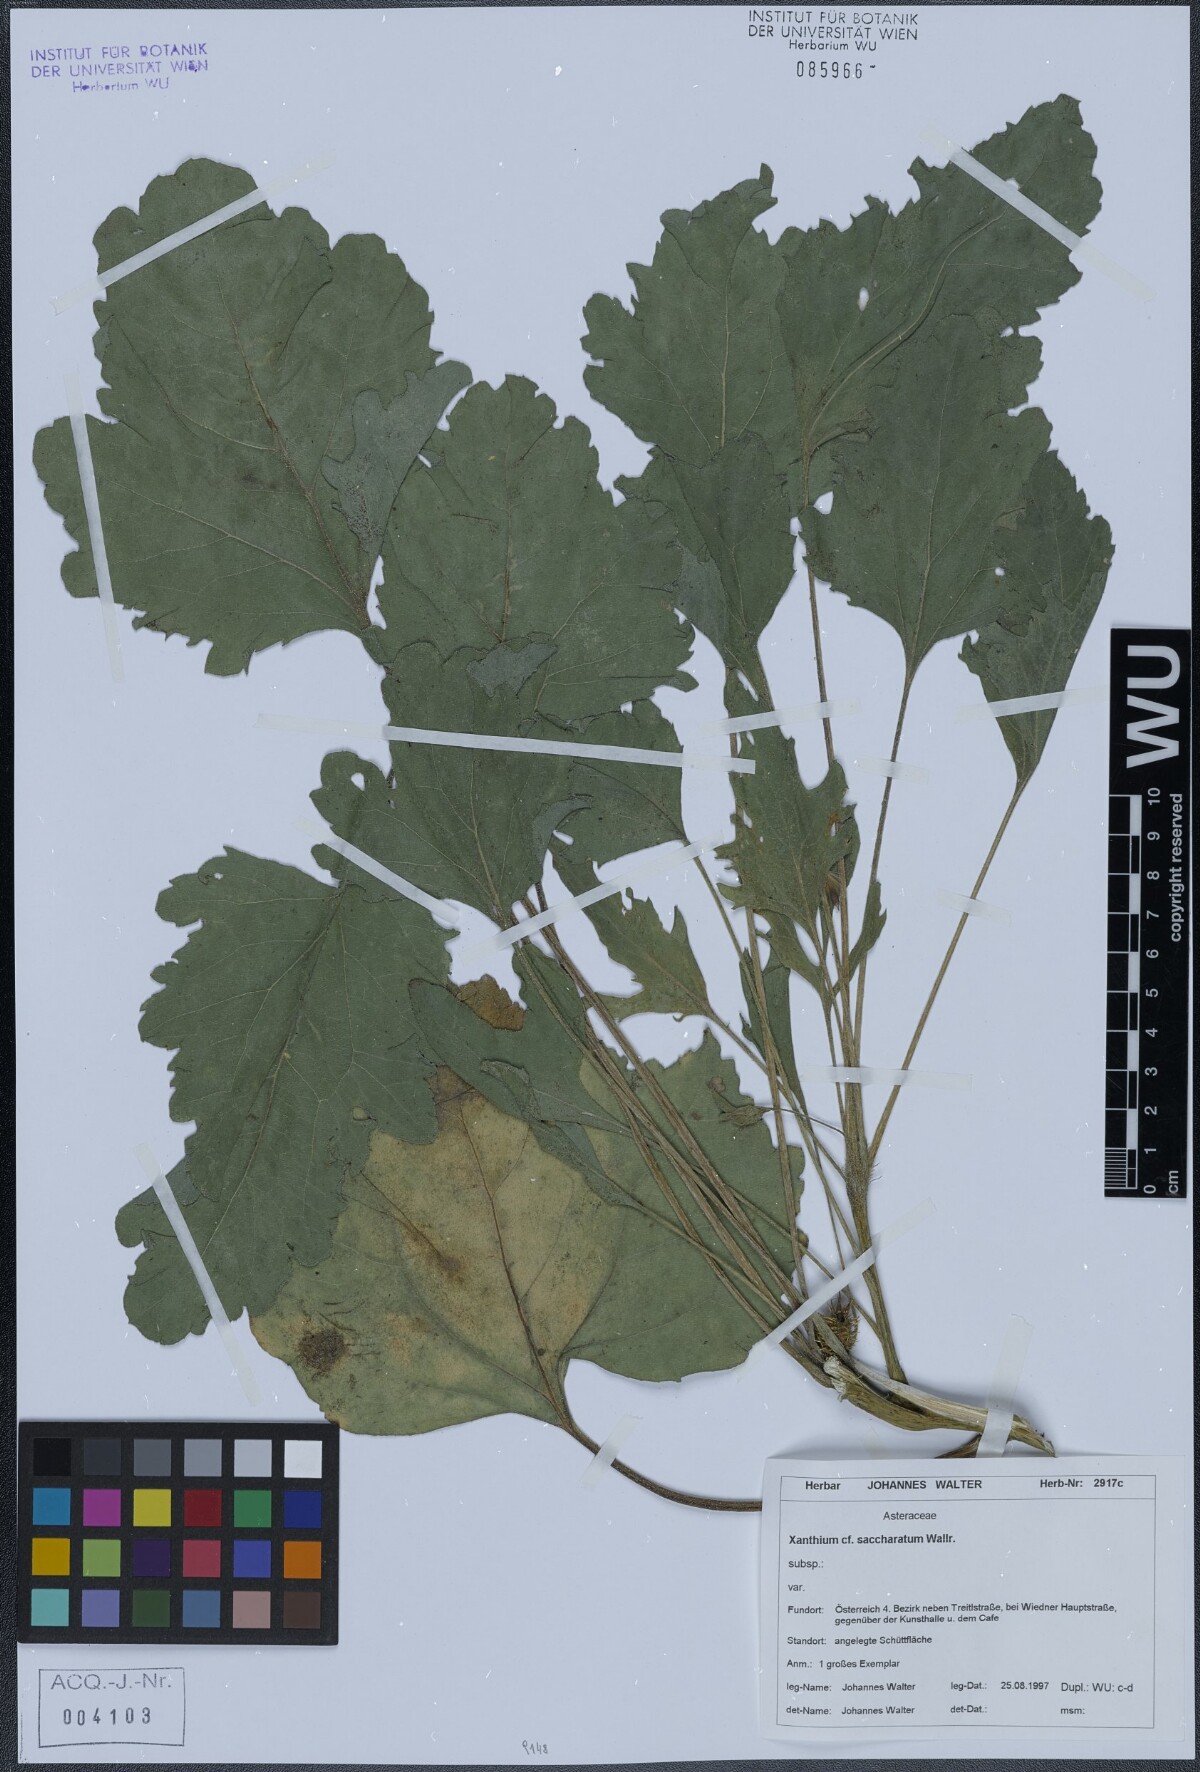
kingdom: Plantae
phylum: Tracheophyta
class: Magnoliopsida
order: Asterales
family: Asteraceae
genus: Xanthium
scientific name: Xanthium orientale
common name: Californian burr
